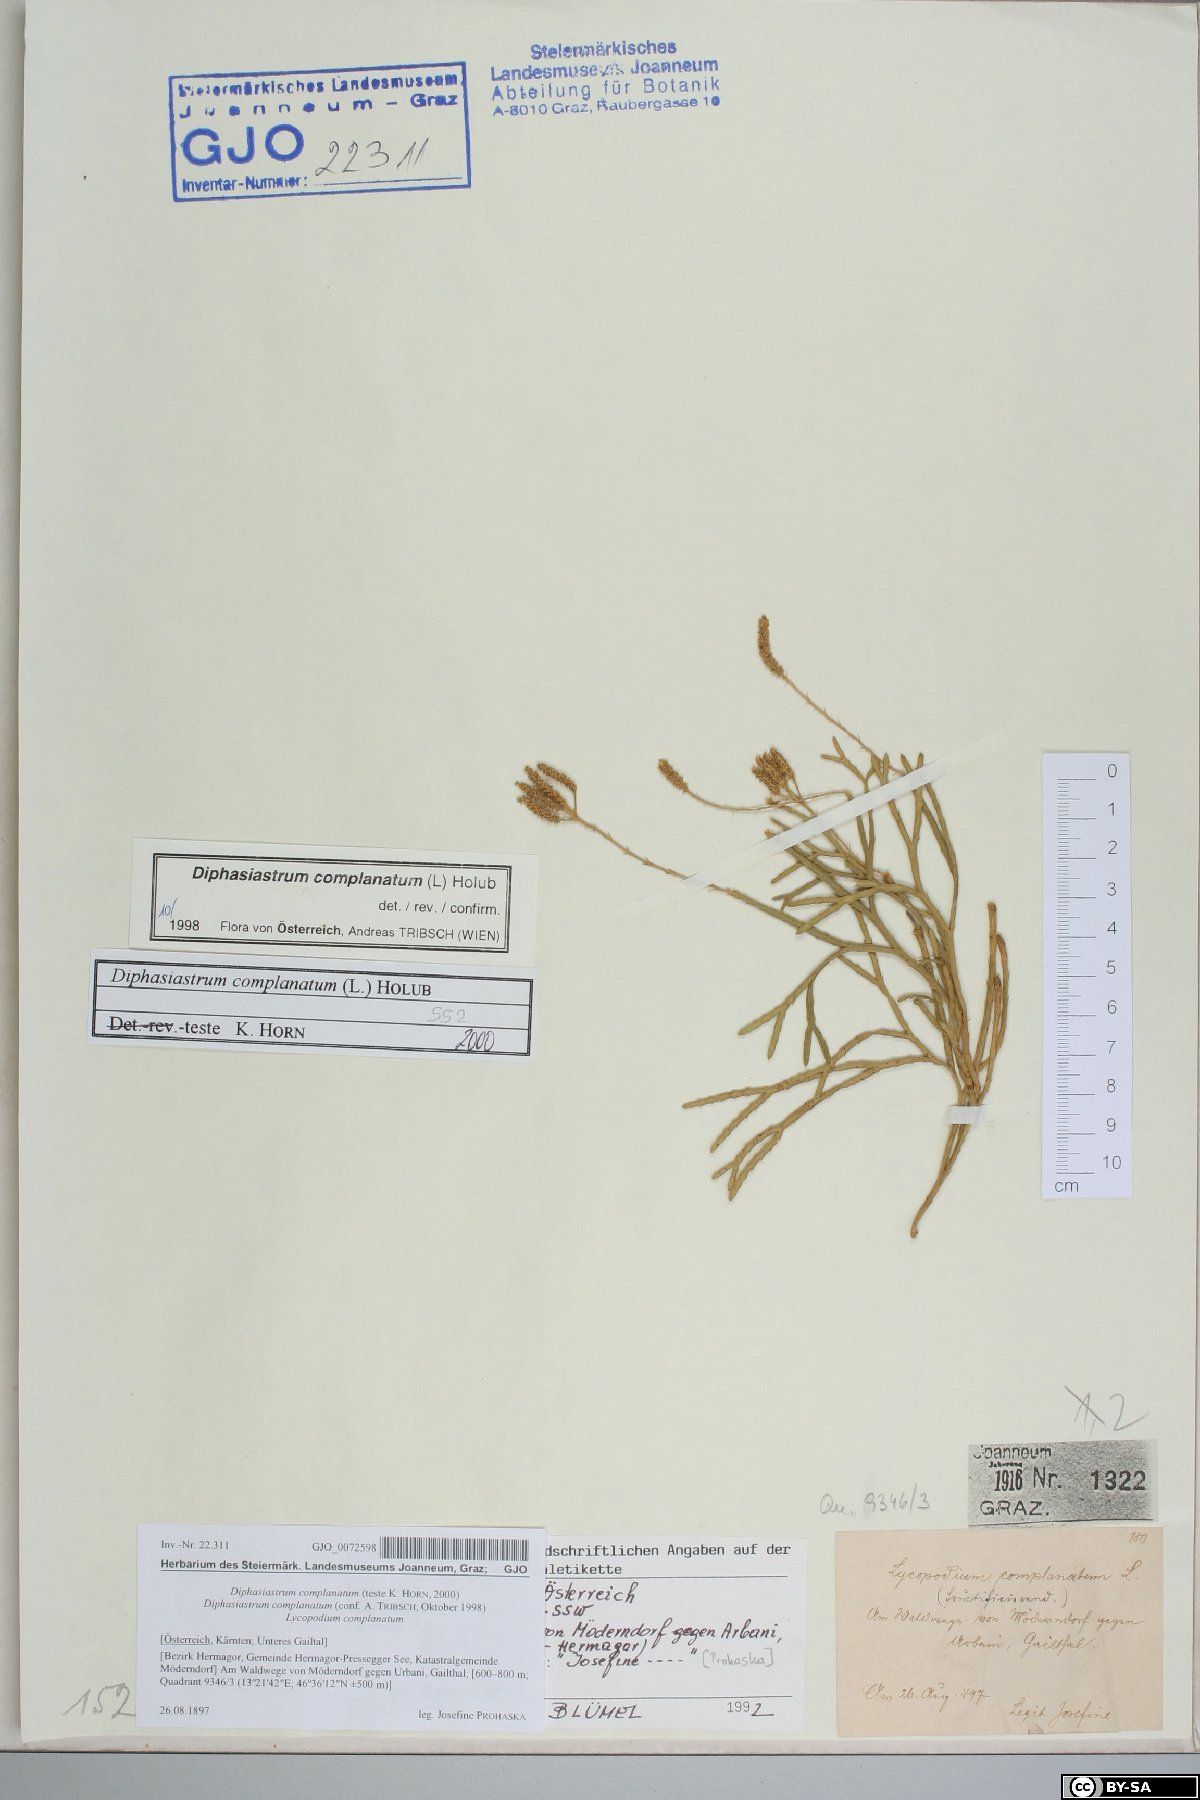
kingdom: Plantae
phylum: Tracheophyta
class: Lycopodiopsida
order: Lycopodiales
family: Lycopodiaceae
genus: Diphasiastrum
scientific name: Diphasiastrum complanatum
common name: Northern running-pine
